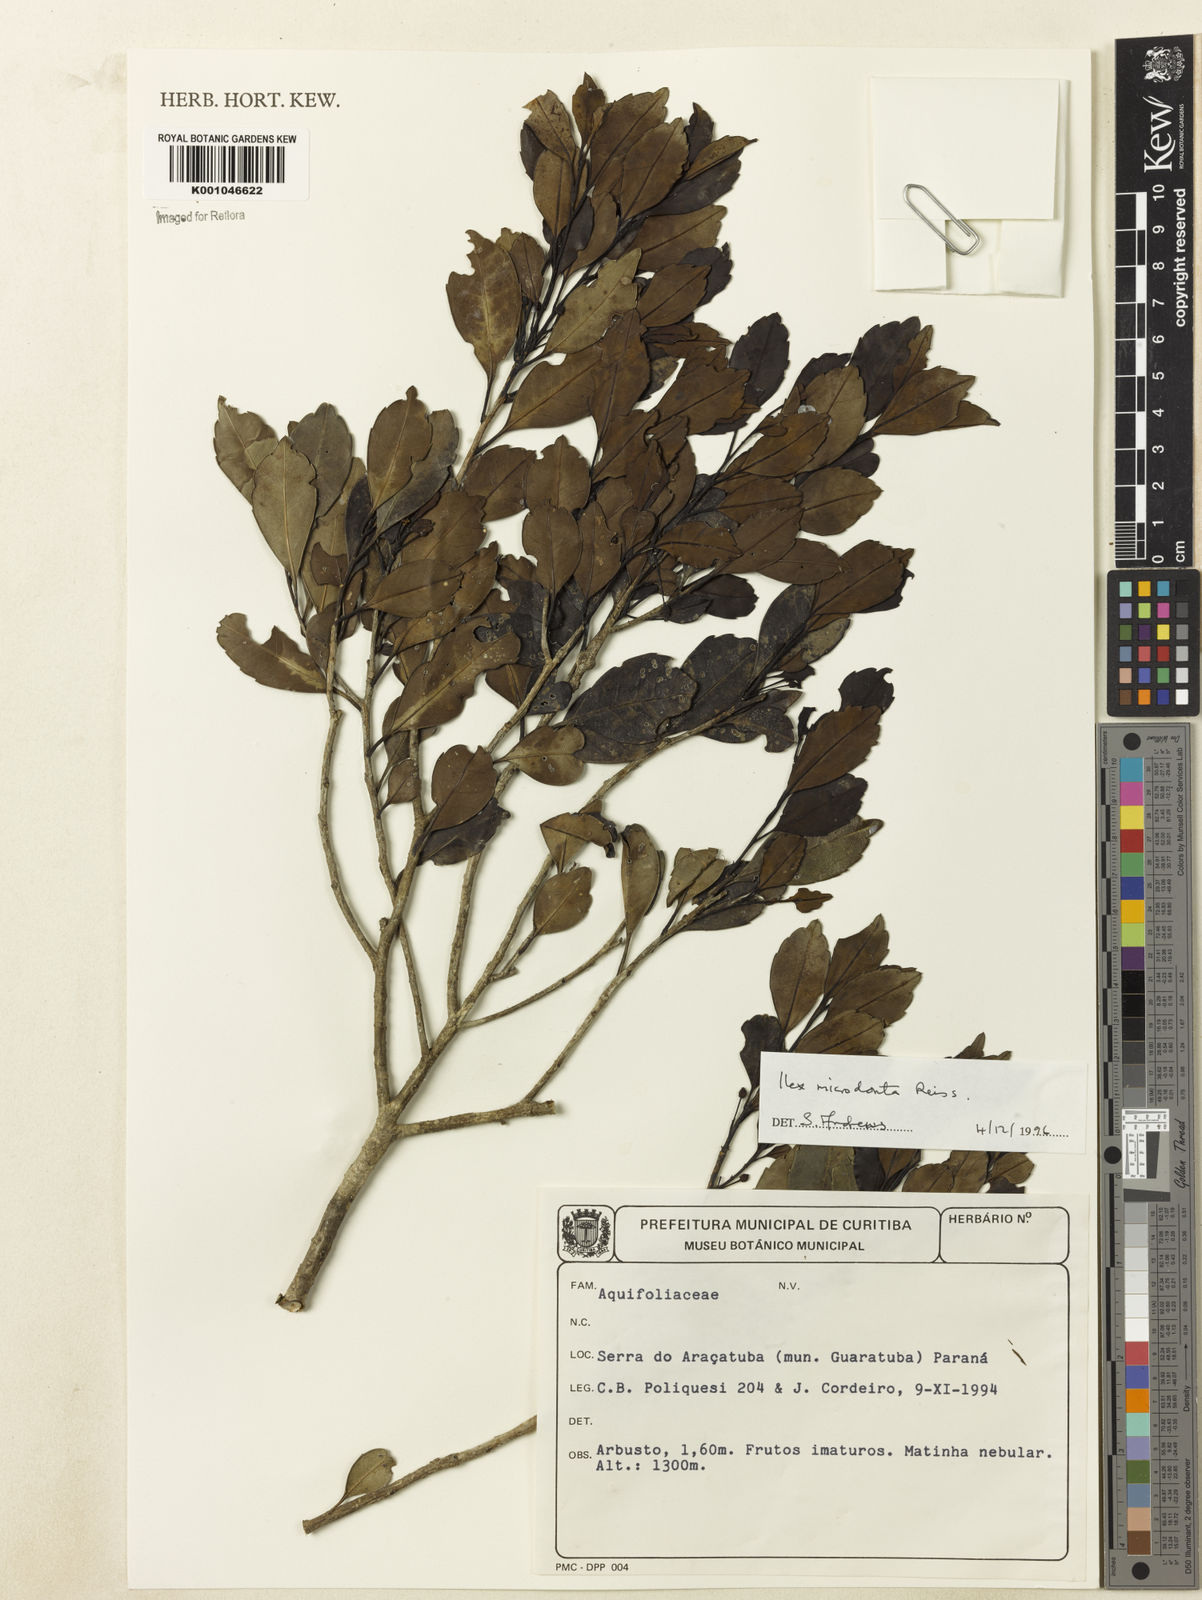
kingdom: Plantae
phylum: Tracheophyta
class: Magnoliopsida
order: Aquifoliales
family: Aquifoliaceae
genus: Ilex
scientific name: Ilex microdonta
